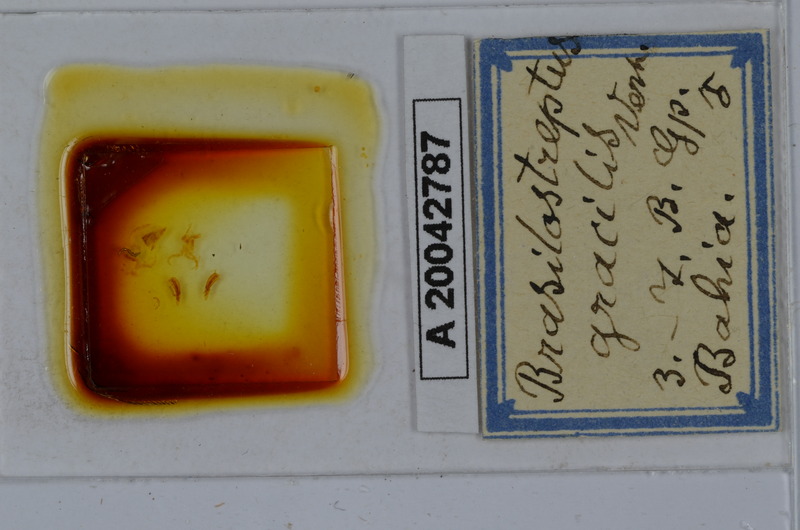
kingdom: Animalia
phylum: Arthropoda
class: Diplopoda
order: Spirostreptida
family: Spirostreptidae
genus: Brasilostreptus
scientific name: Brasilostreptus gracilis
